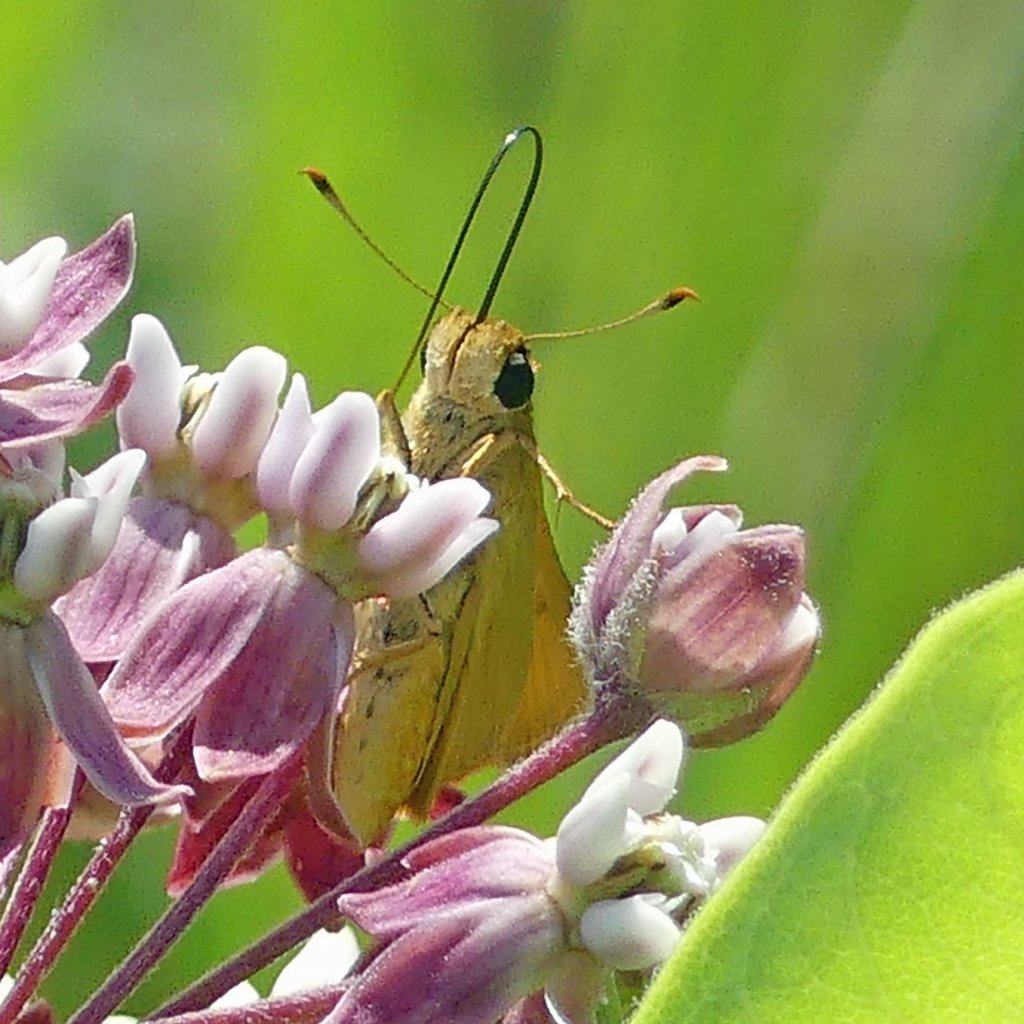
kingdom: Animalia
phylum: Arthropoda
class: Insecta
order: Lepidoptera
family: Hesperiidae
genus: Atrytone
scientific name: Atrytone delaware
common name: Delaware Skipper
